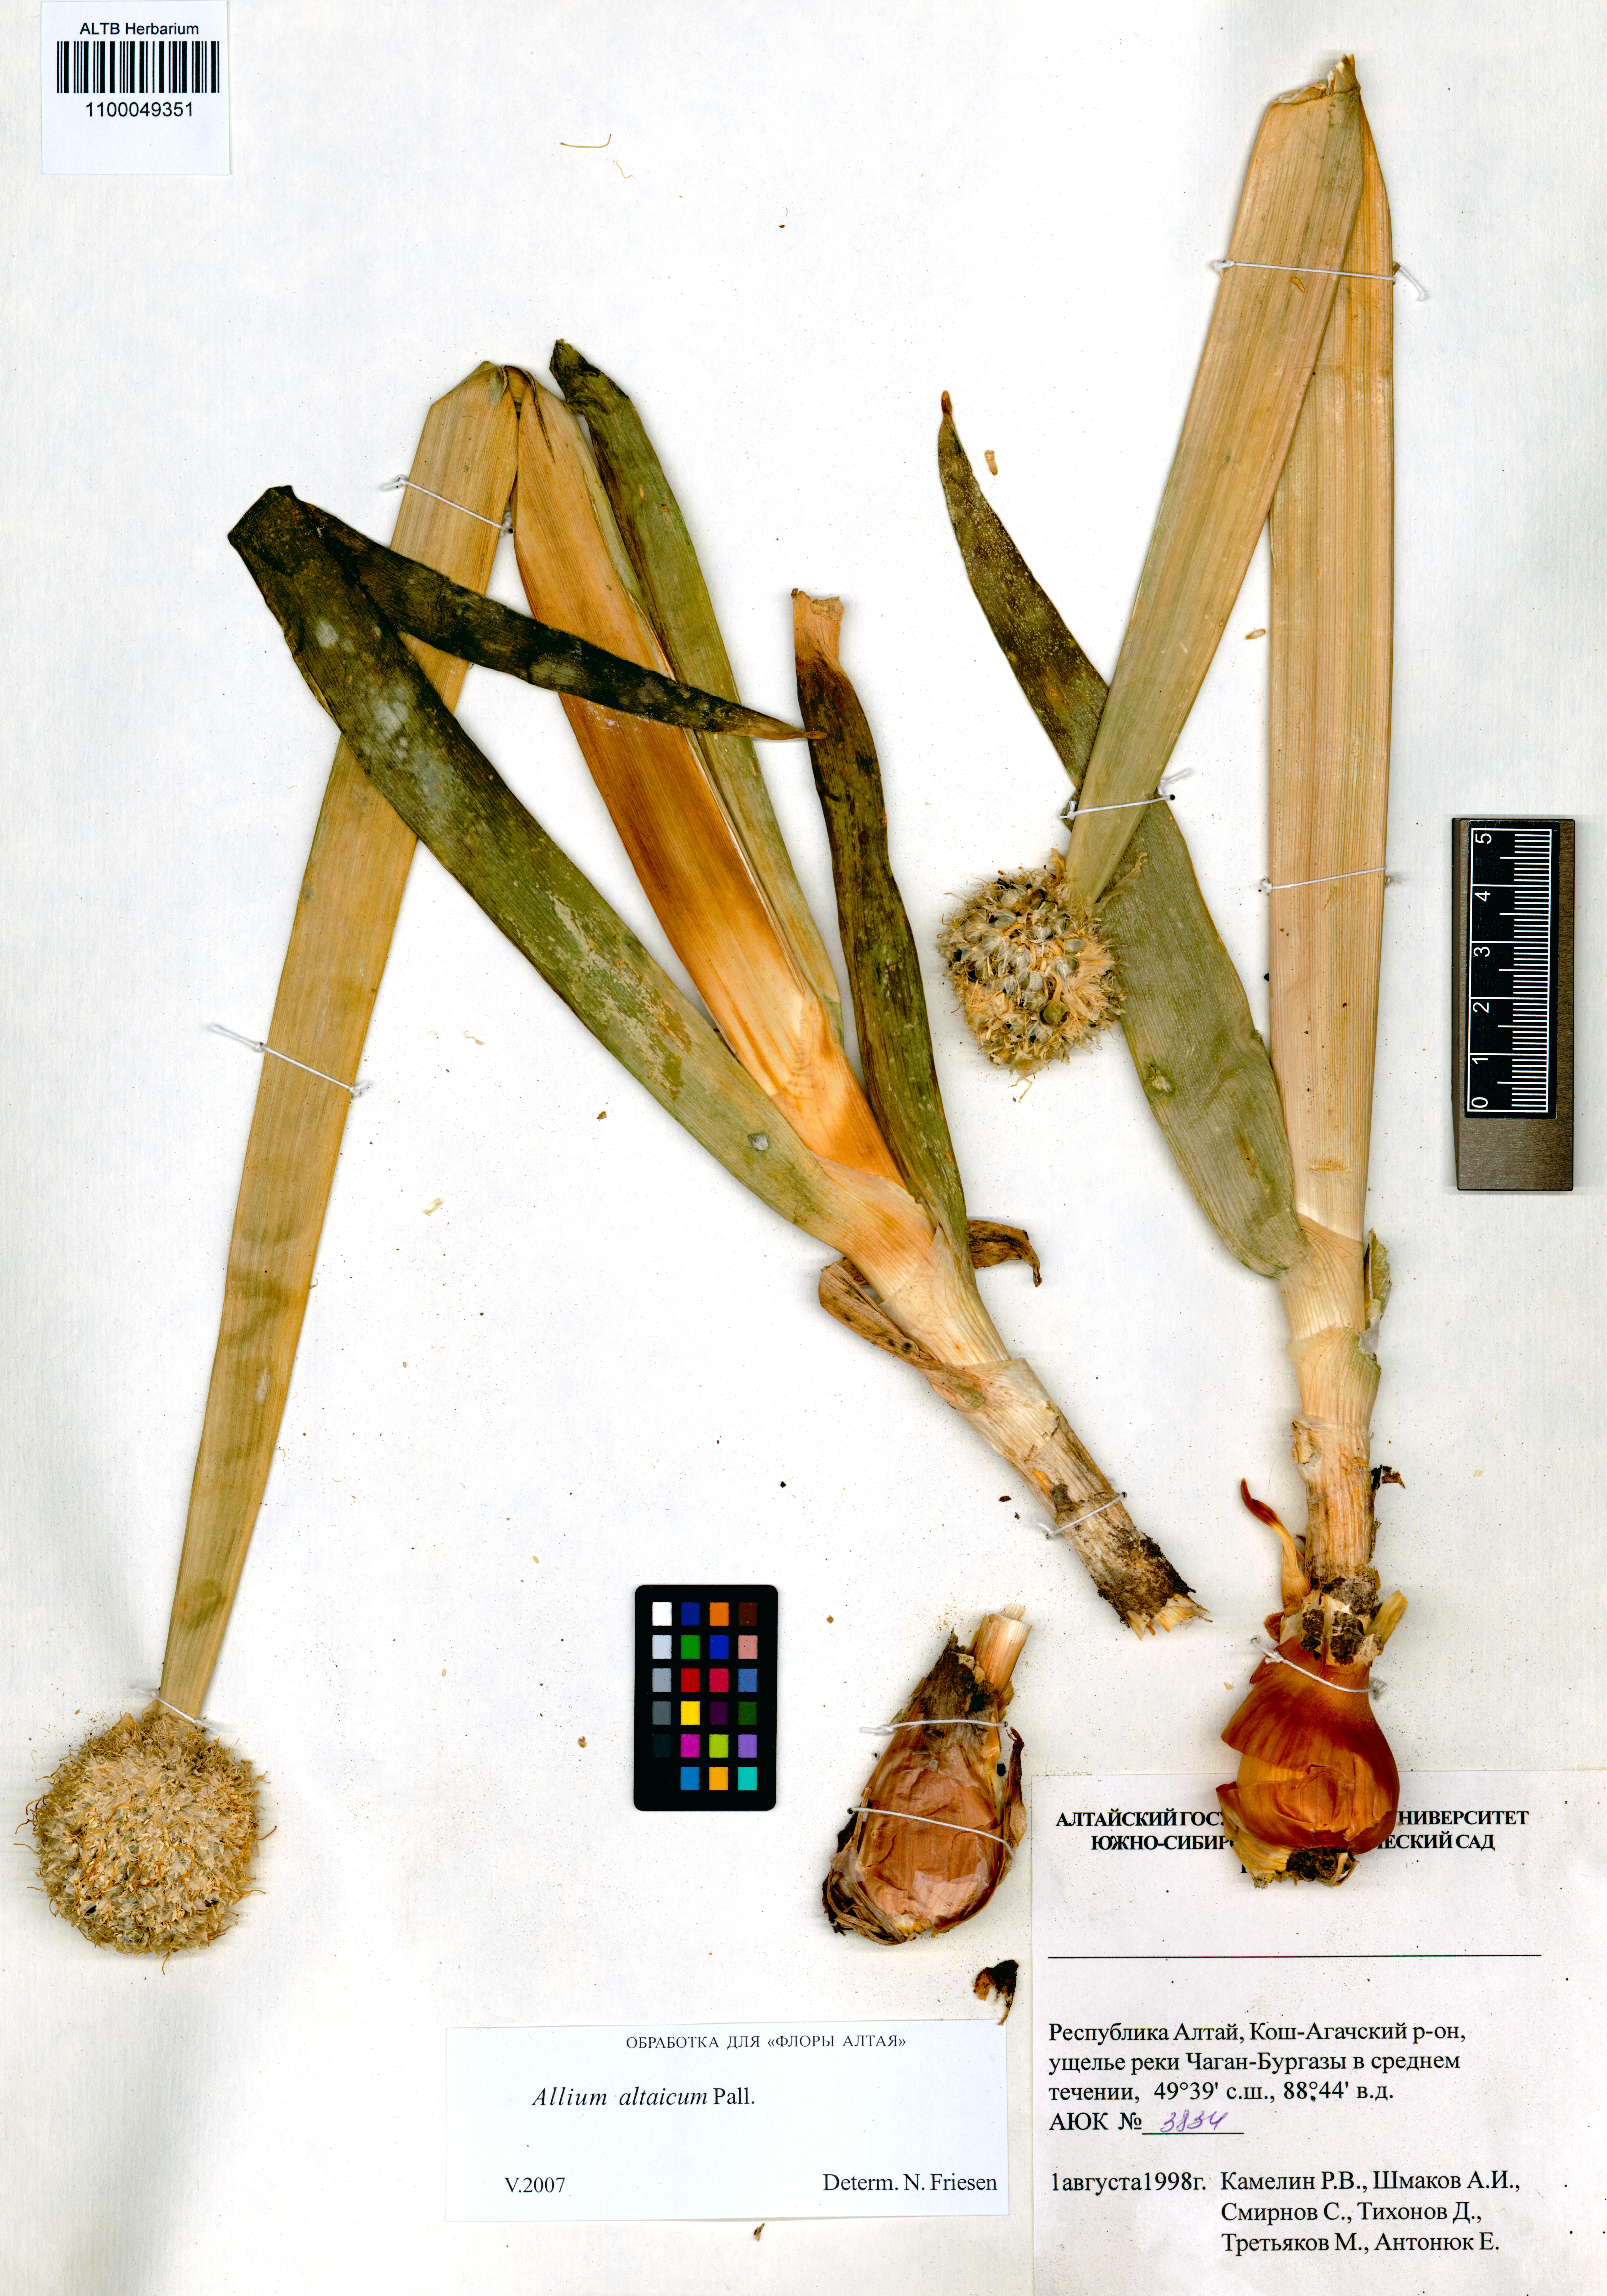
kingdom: Plantae
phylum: Tracheophyta
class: Liliopsida
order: Asparagales
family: Amaryllidaceae
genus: Allium
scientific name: Allium altaicum
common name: Altai onion
